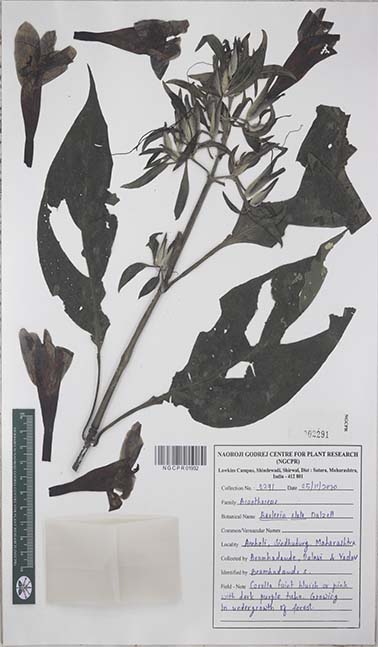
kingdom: Plantae
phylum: Tracheophyta
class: Magnoliopsida
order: Lamiales
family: Acanthaceae
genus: Barleria
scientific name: Barleria involucrata
